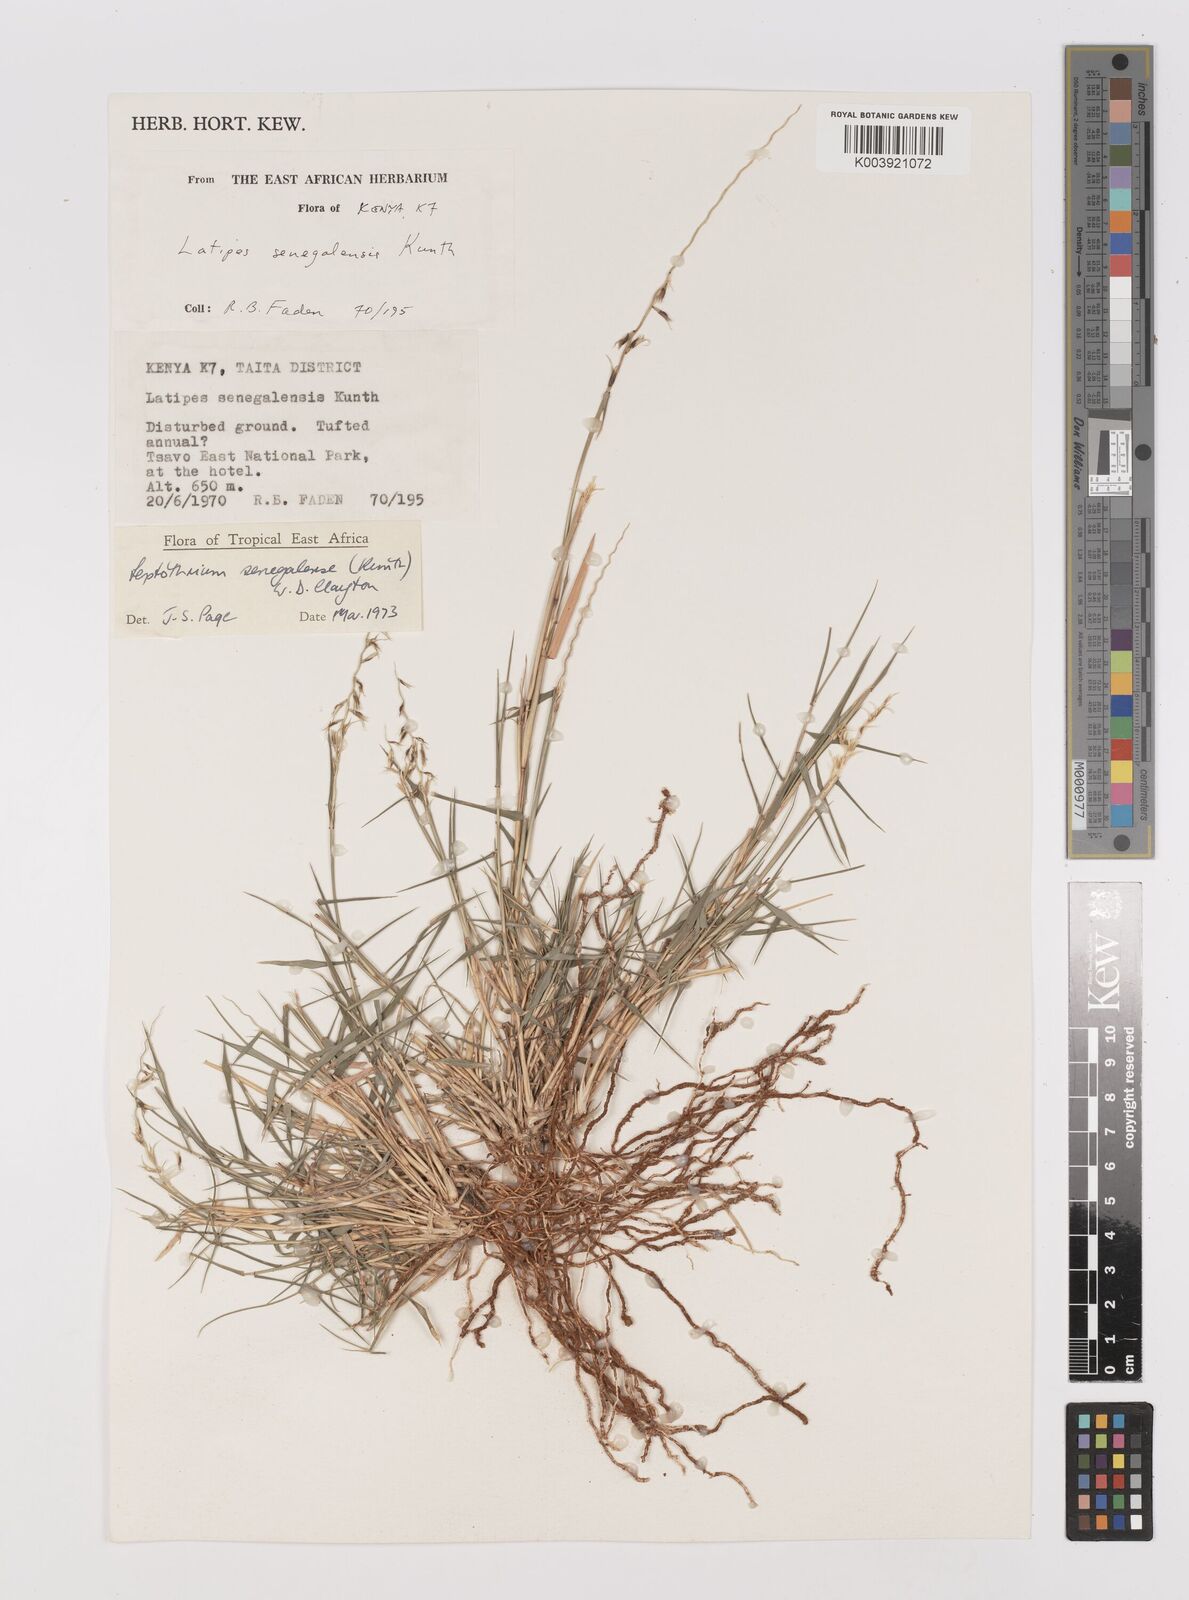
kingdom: Plantae
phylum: Tracheophyta
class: Liliopsida
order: Poales
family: Poaceae
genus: Leptothrium
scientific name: Leptothrium senegalense
